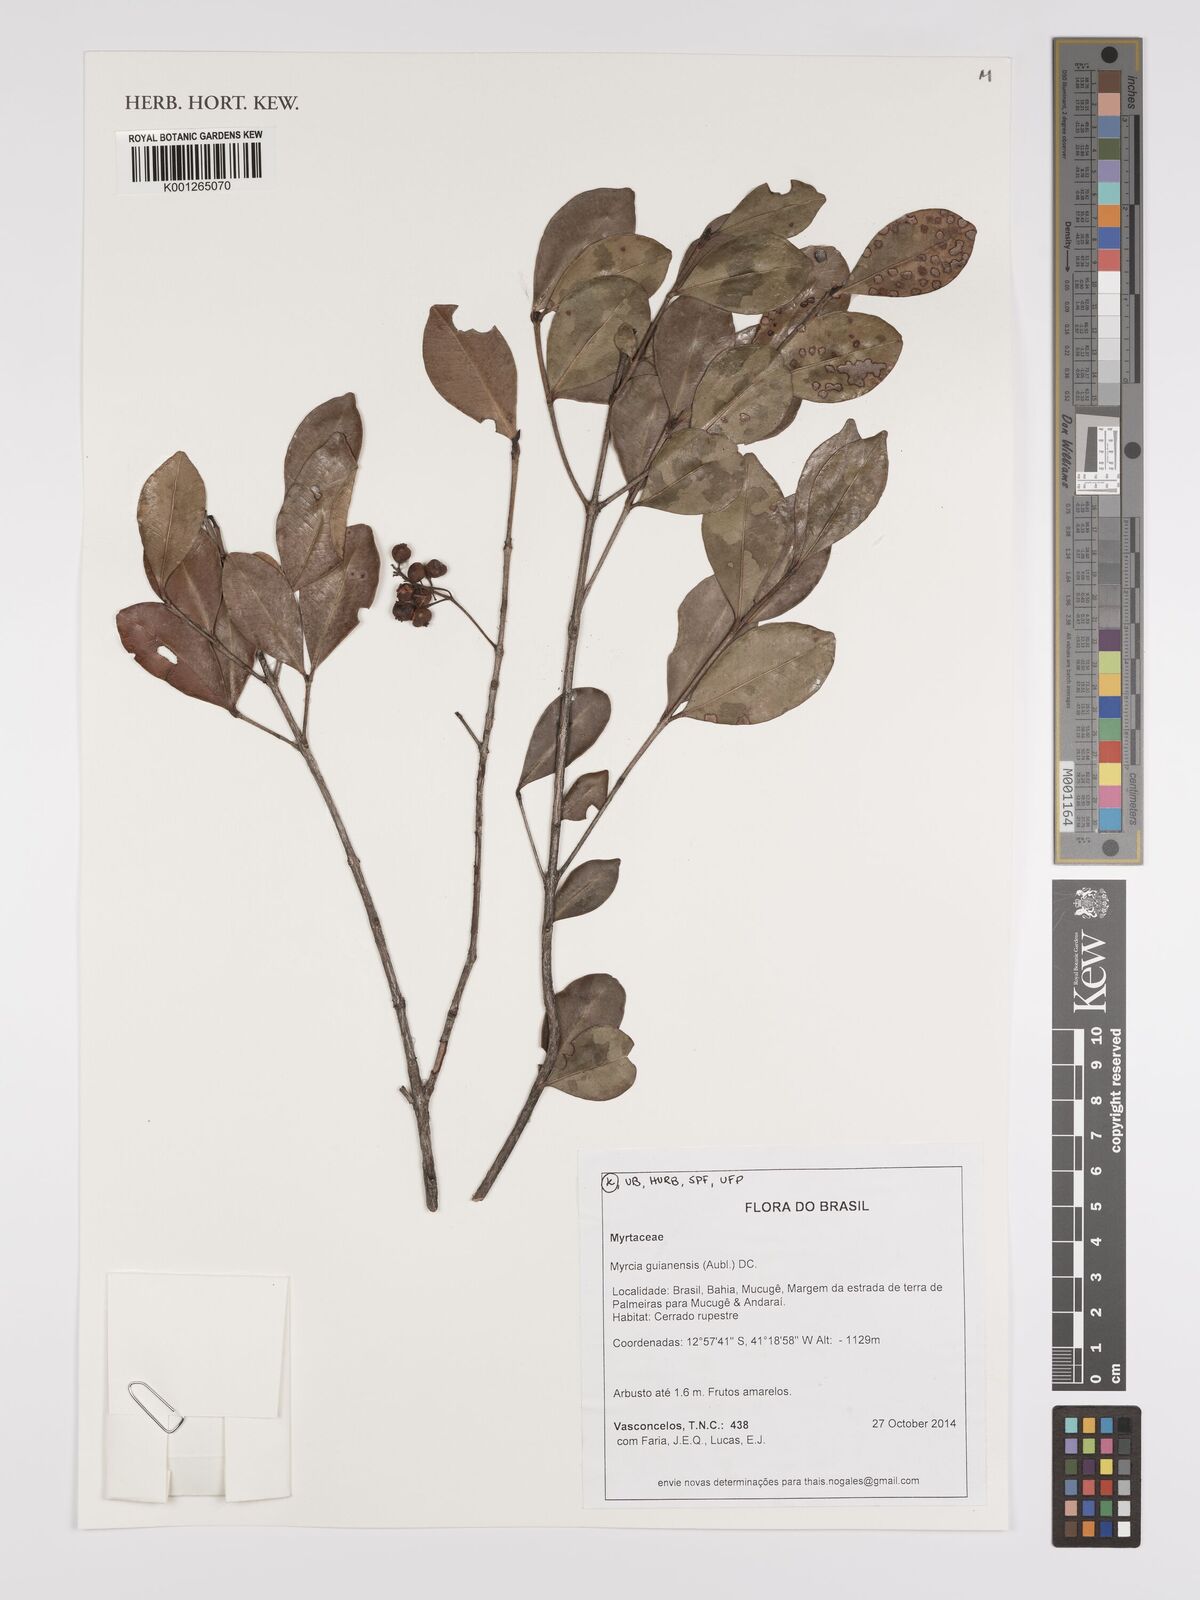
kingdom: Plantae
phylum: Tracheophyta
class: Magnoliopsida
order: Myrtales
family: Myrtaceae
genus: Myrcia
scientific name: Myrcia guianensis
